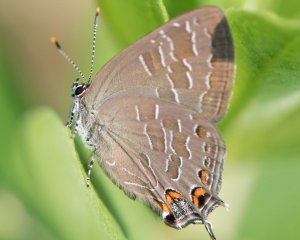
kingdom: Animalia
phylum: Arthropoda
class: Insecta
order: Lepidoptera
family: Lycaenidae
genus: Satyrium
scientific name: Satyrium liparops
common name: Striped Hairstreak
